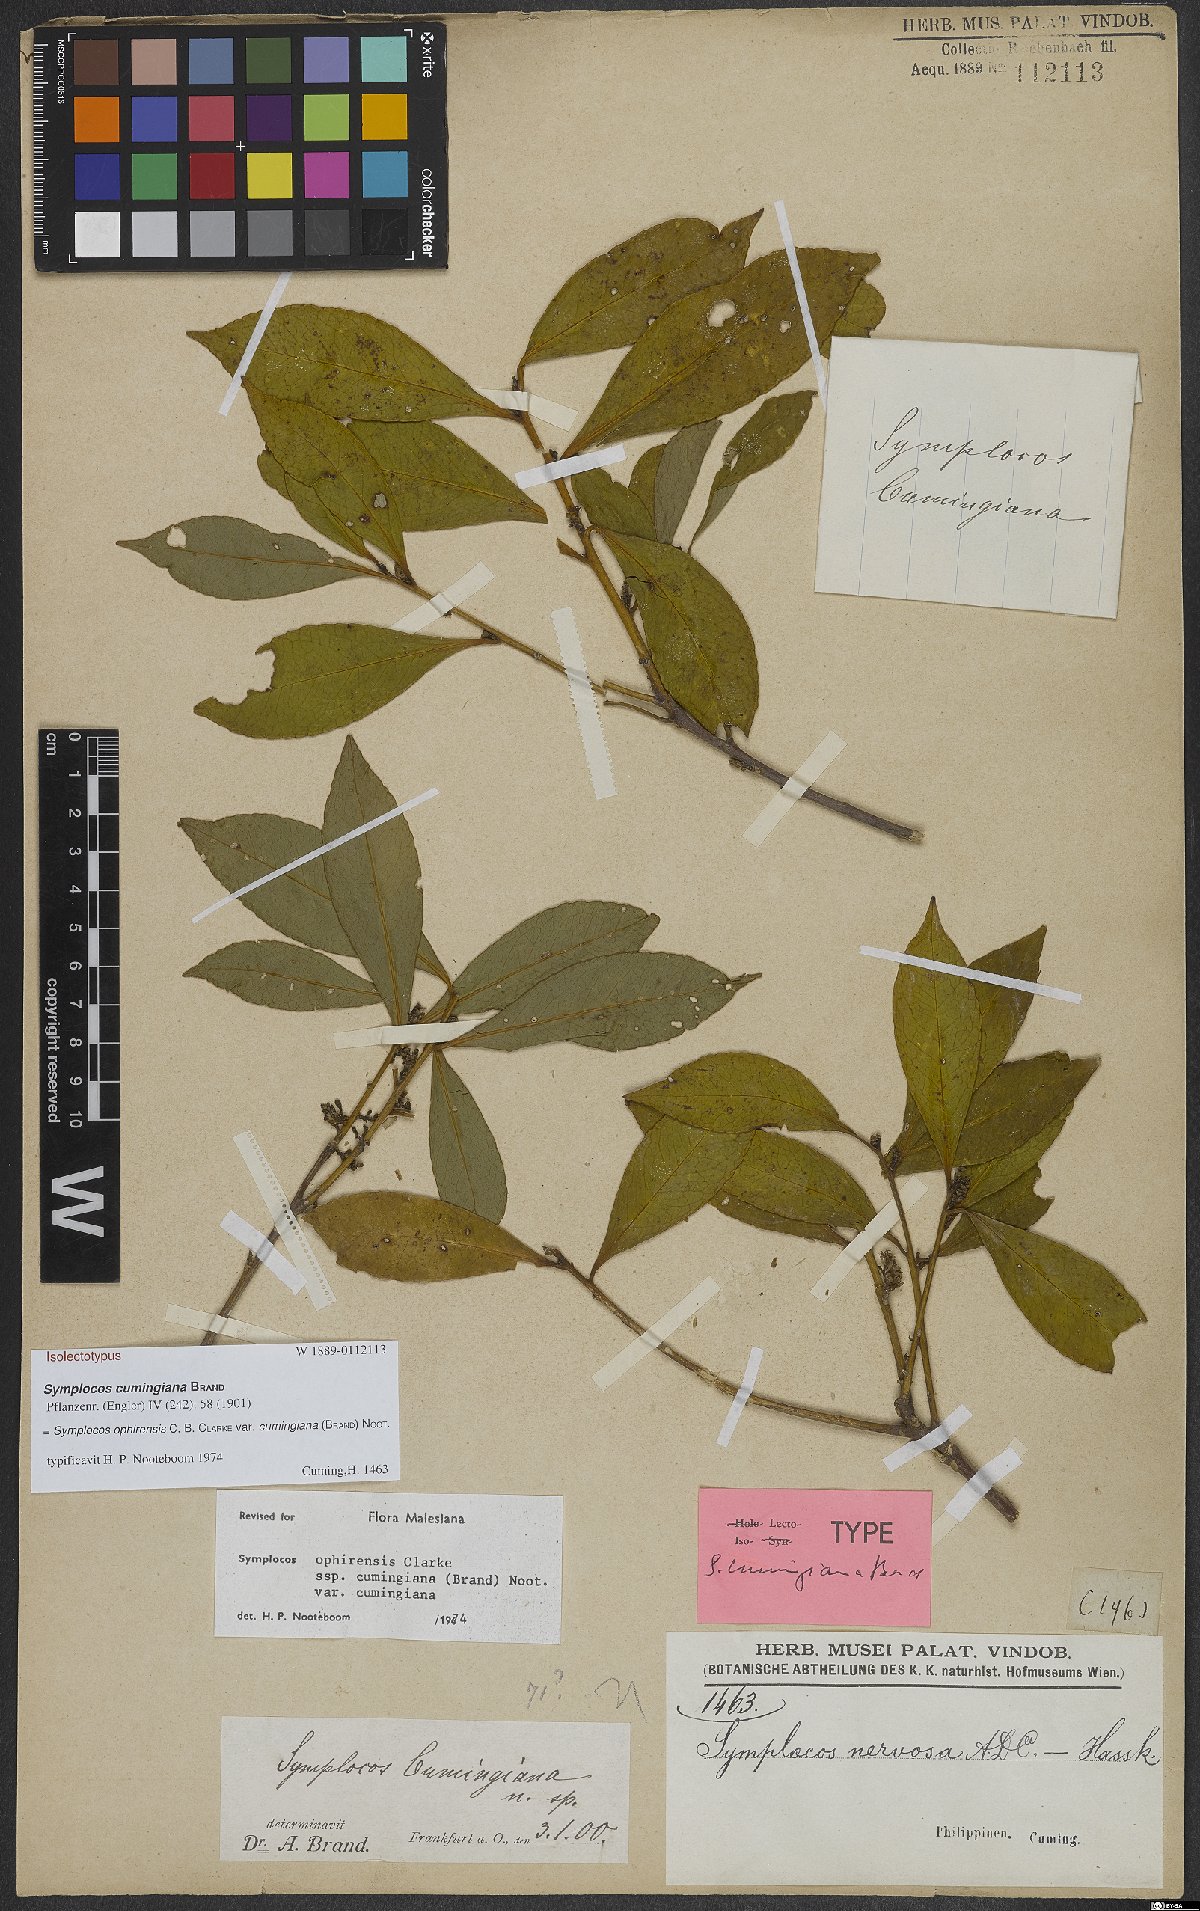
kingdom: Plantae
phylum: Tracheophyta
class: Magnoliopsida
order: Ericales
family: Symplocaceae
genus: Symplocos
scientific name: Symplocos ophirensis
